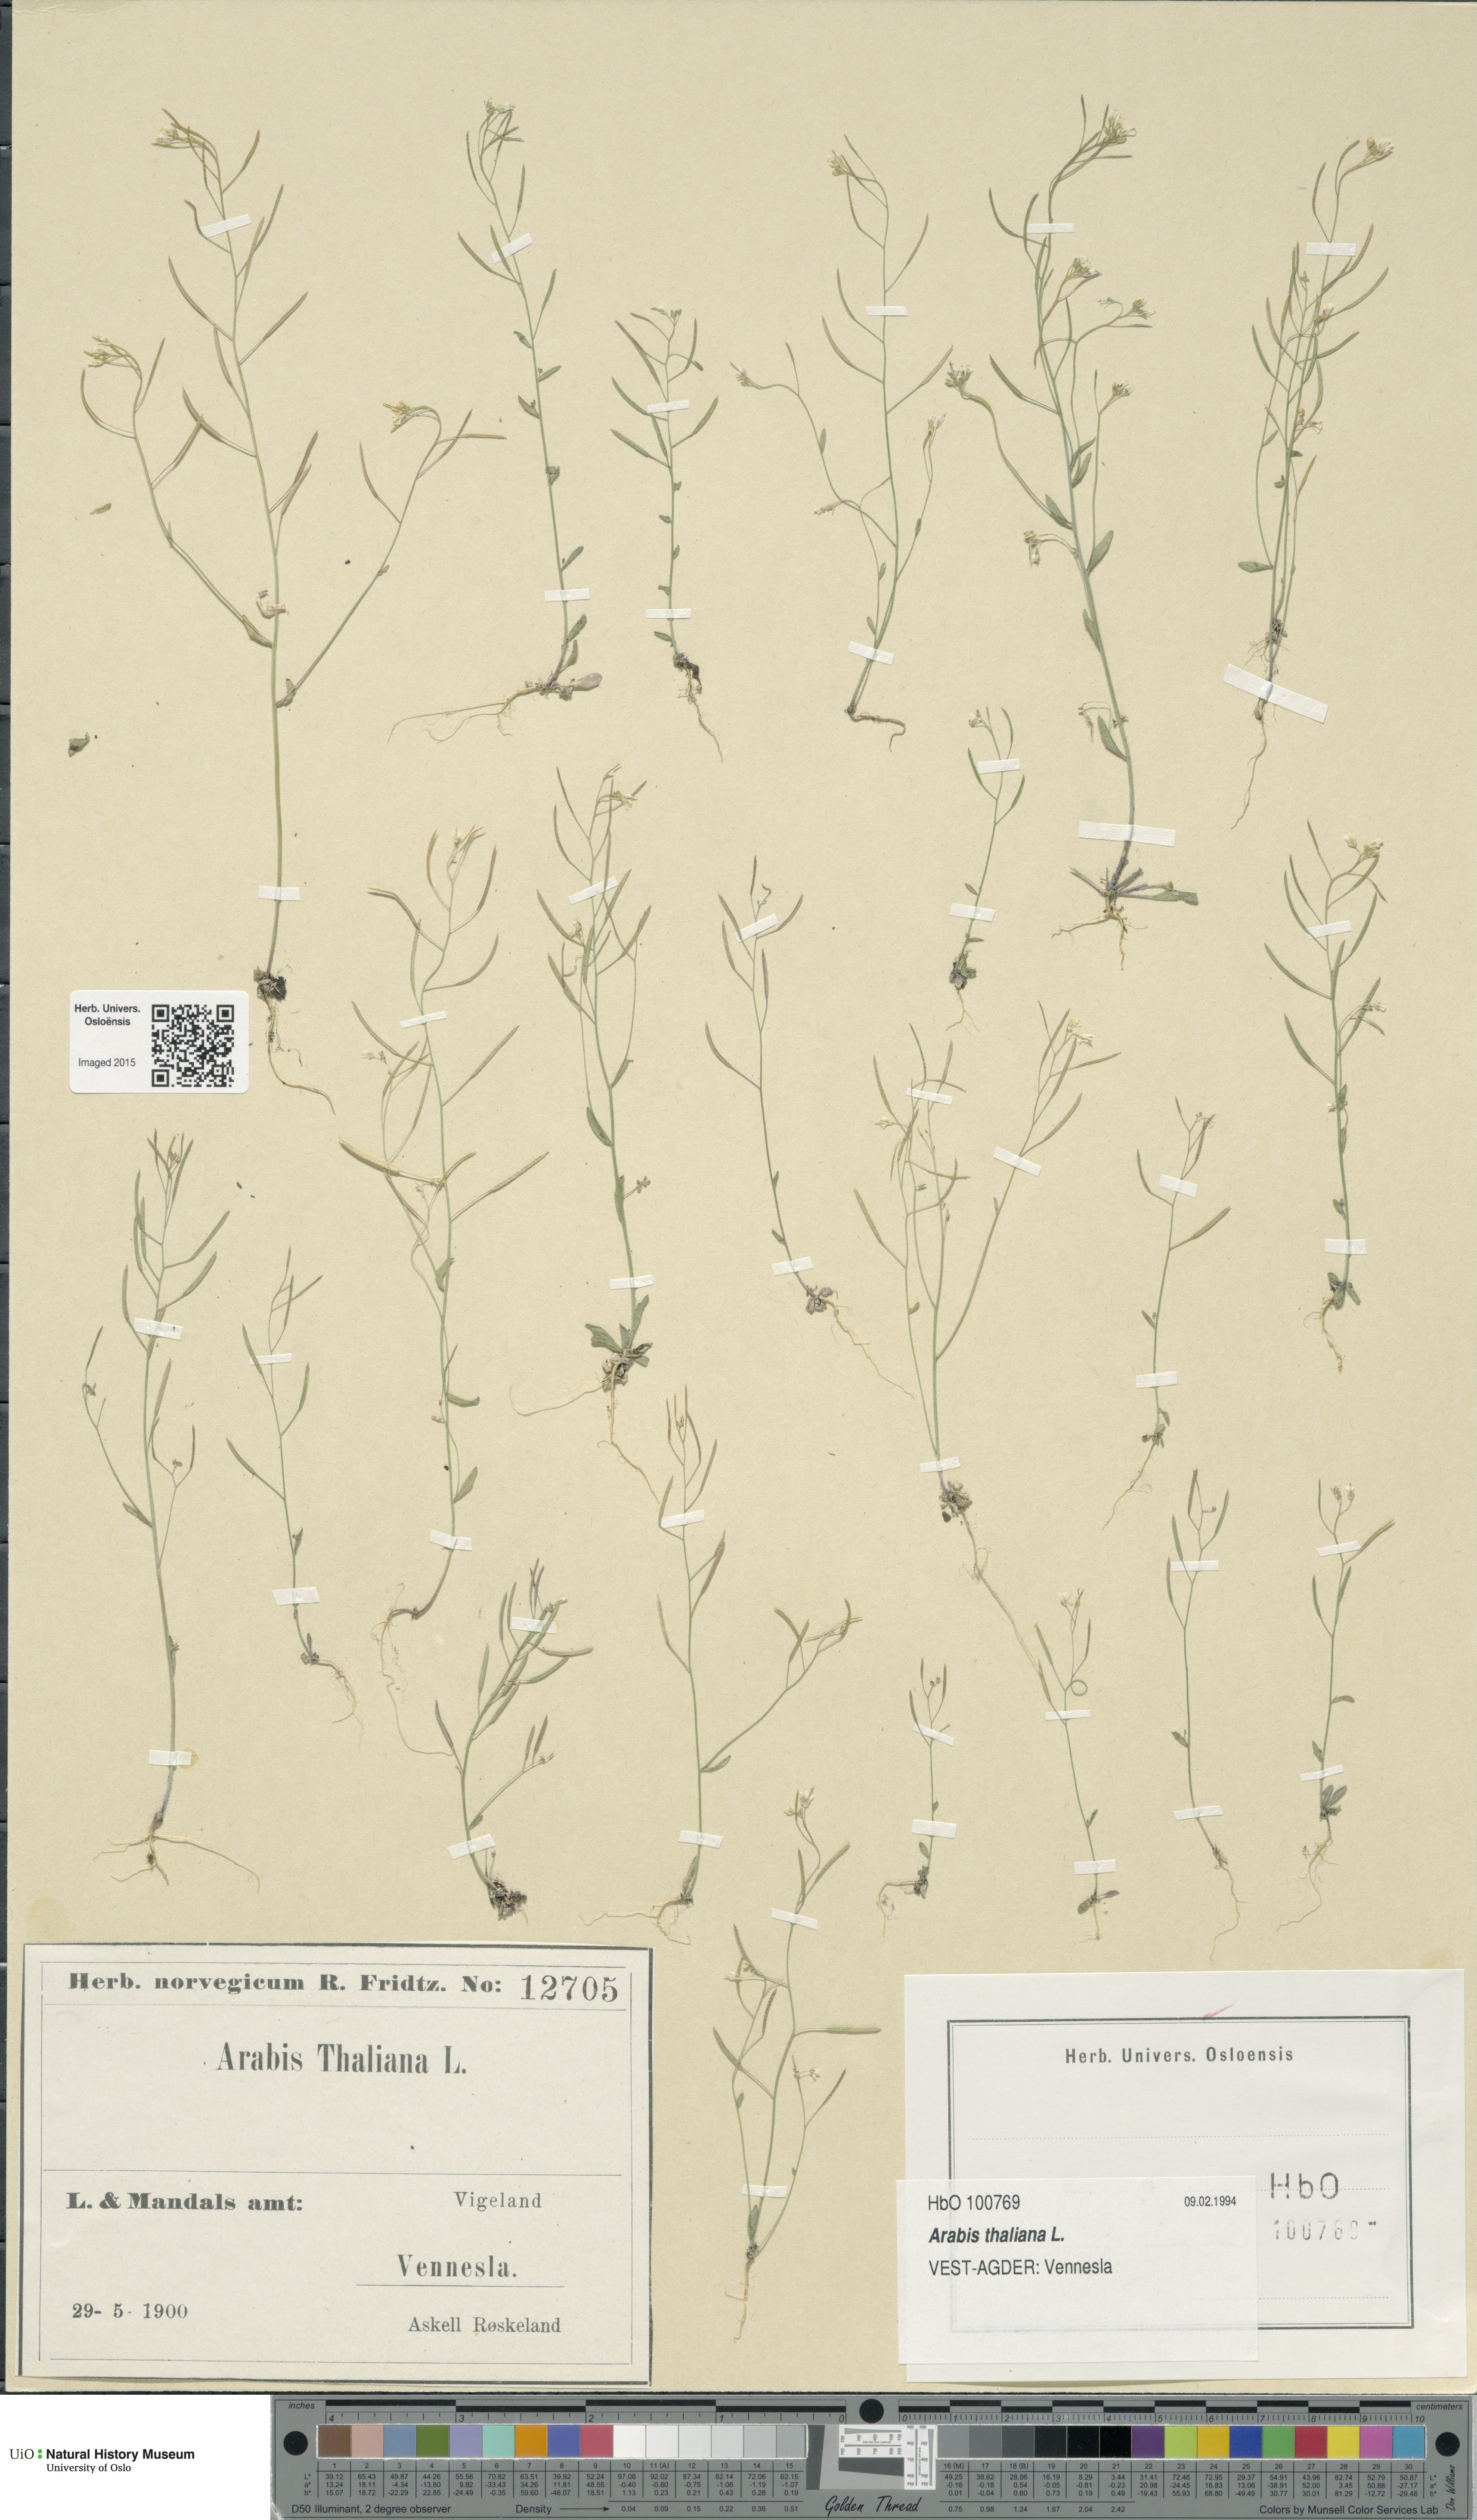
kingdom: Plantae
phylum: Tracheophyta
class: Magnoliopsida
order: Brassicales
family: Brassicaceae
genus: Arabidopsis
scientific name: Arabidopsis thaliana
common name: Thale cress
